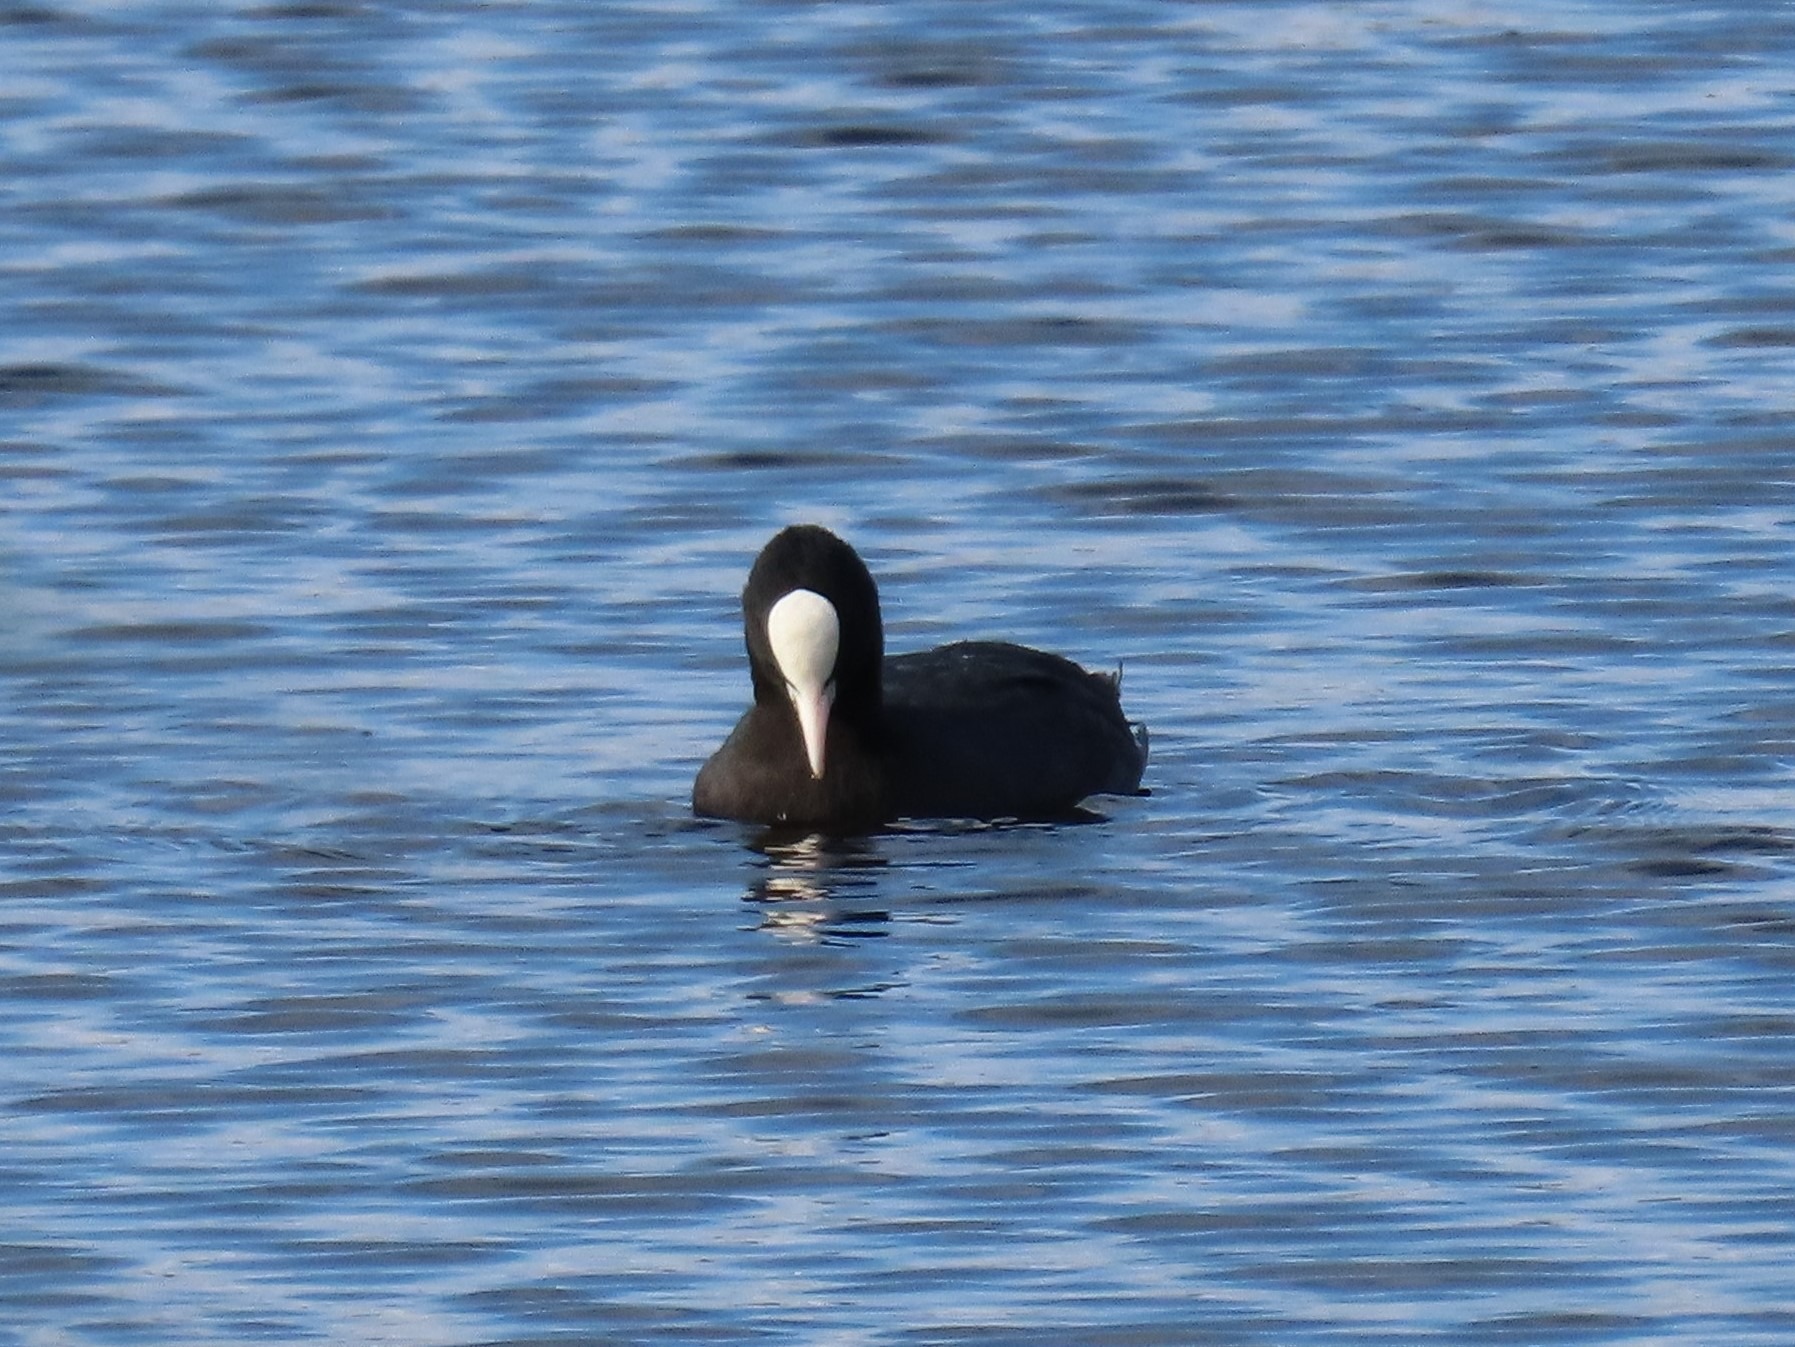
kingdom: Animalia
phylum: Chordata
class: Aves
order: Gruiformes
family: Rallidae
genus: Fulica
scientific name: Fulica atra
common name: Blishøne
